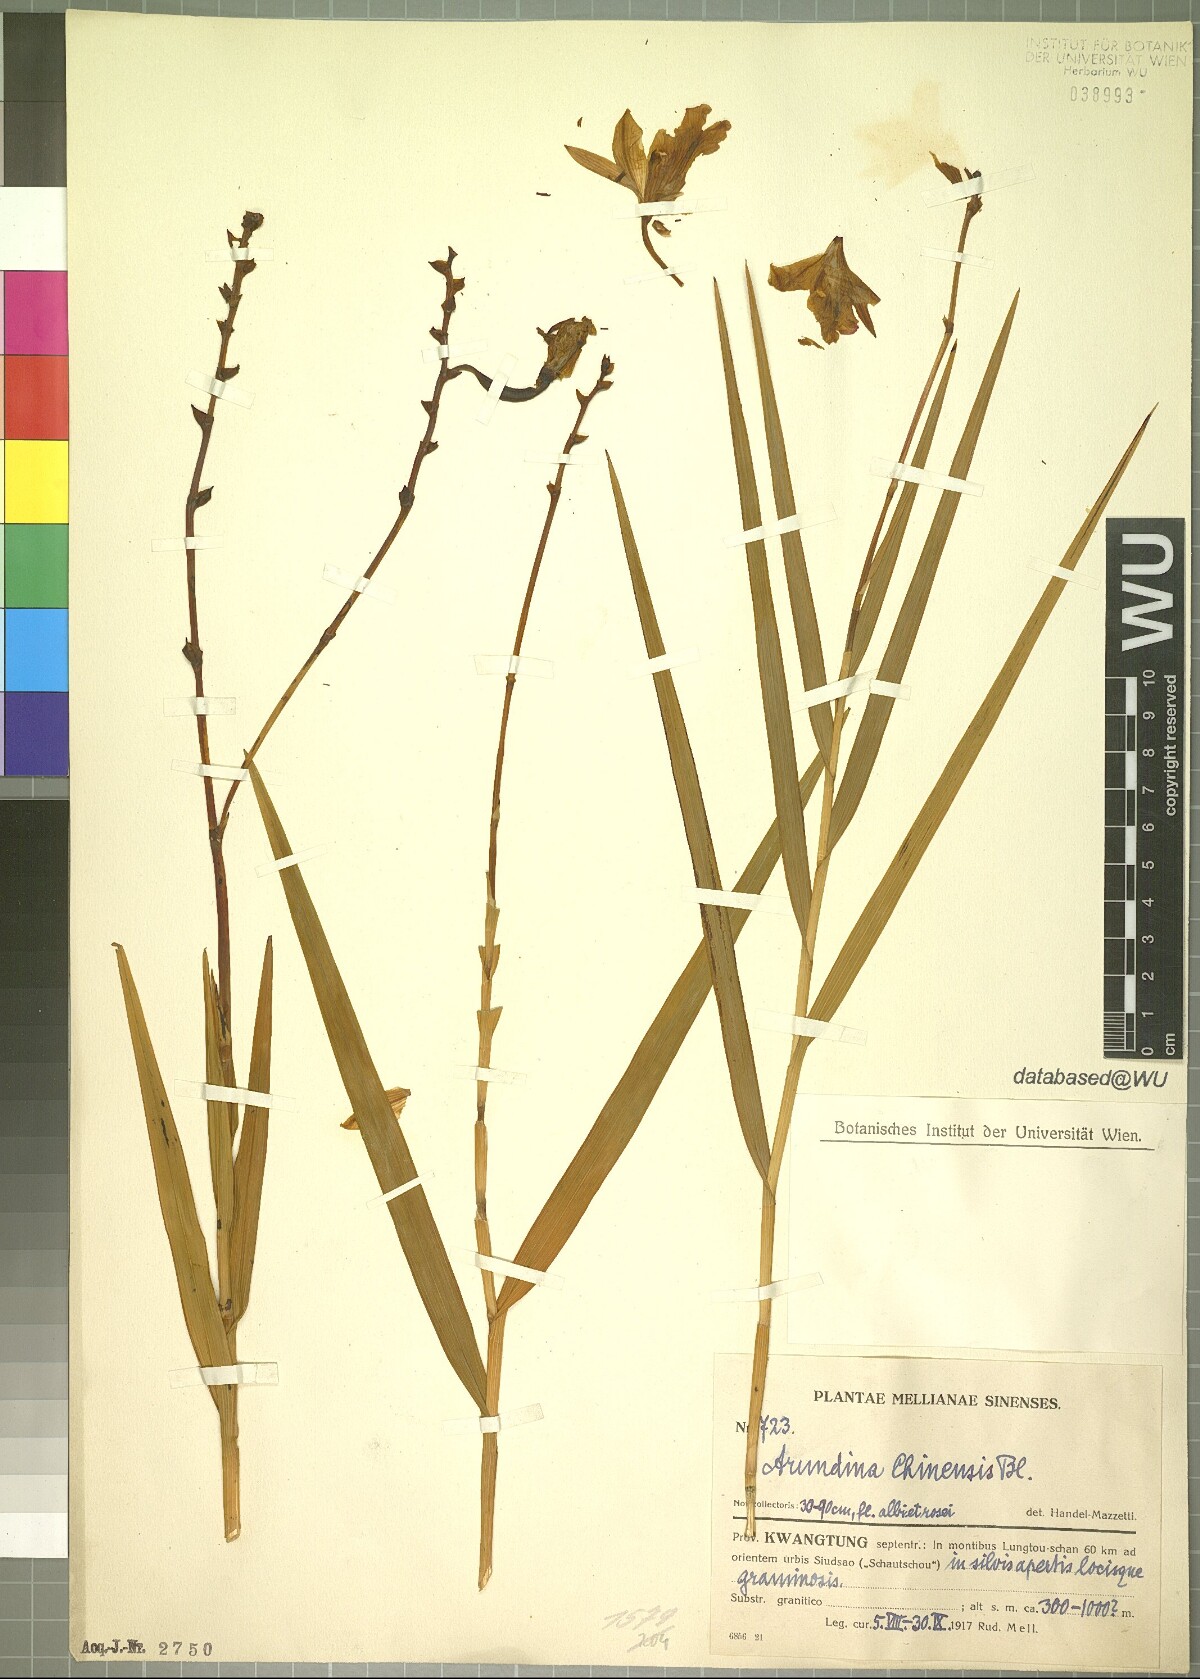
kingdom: Plantae
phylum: Tracheophyta
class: Liliopsida
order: Asparagales
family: Orchidaceae
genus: Arundina
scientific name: Arundina graminifolia
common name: Bamboo orchid
